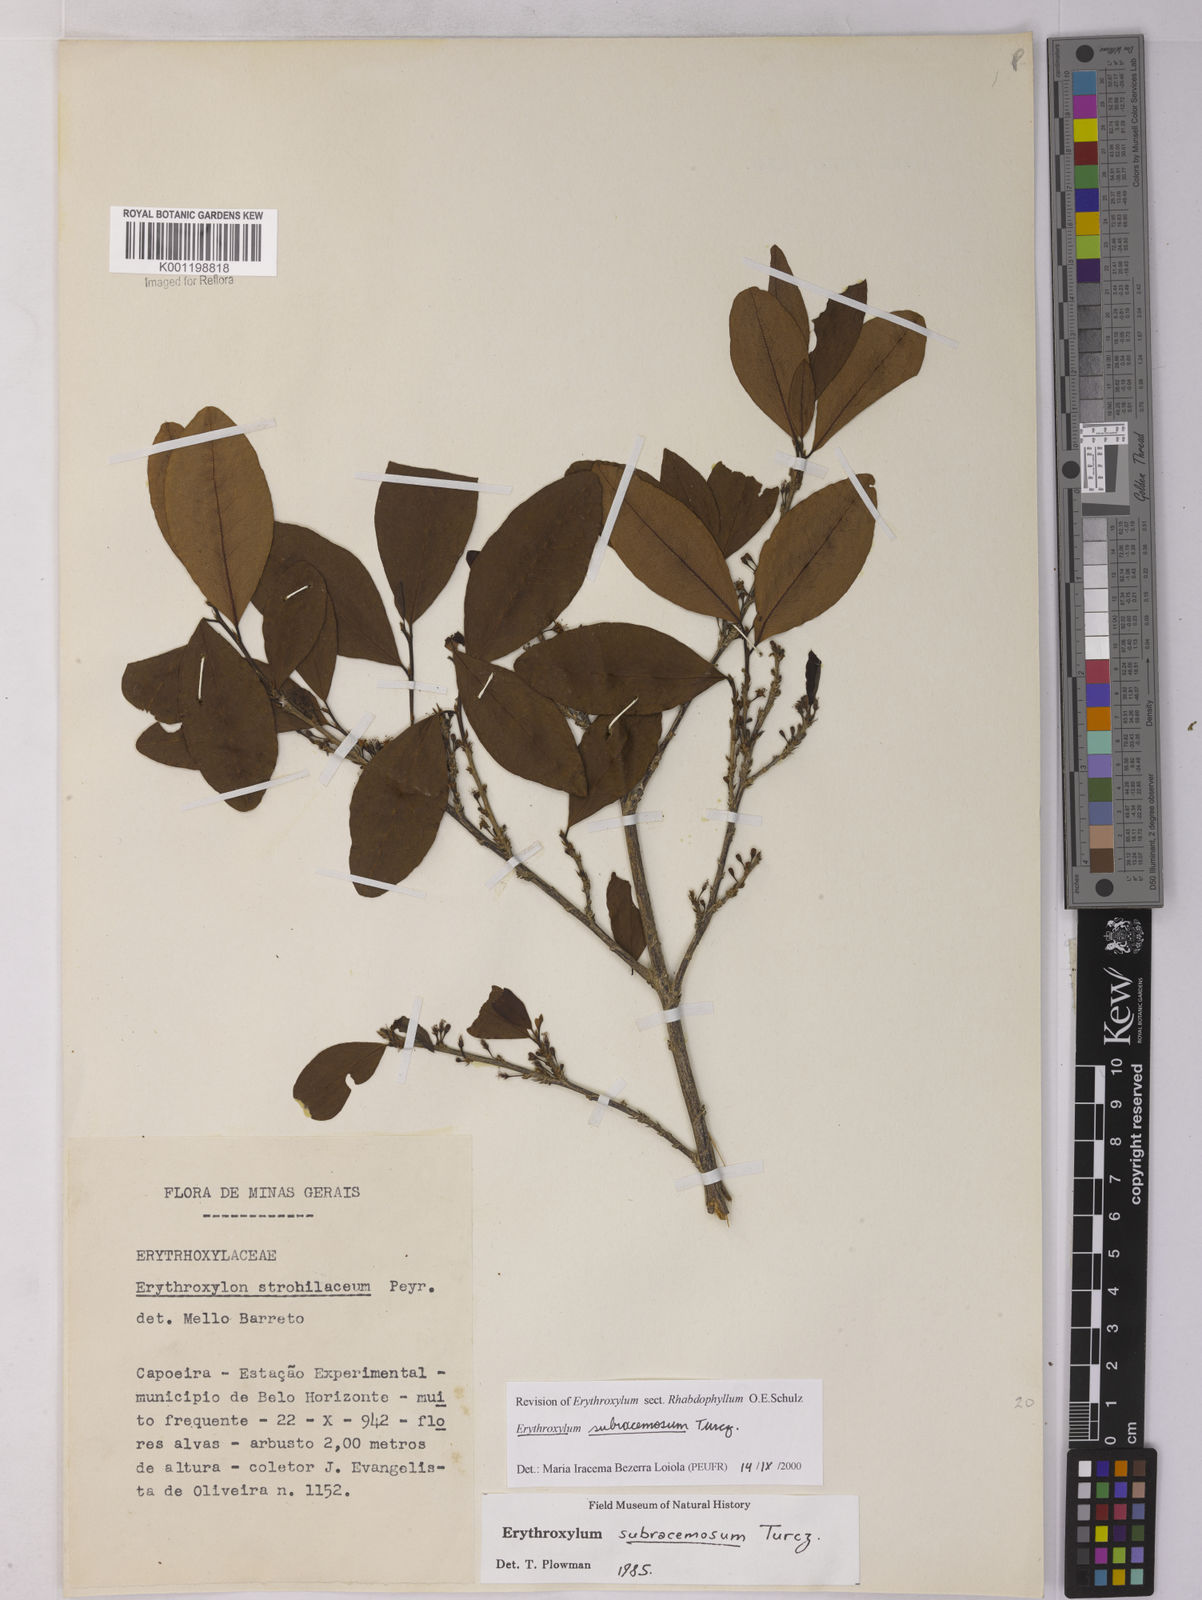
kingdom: Plantae
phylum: Tracheophyta
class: Magnoliopsida
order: Malpighiales
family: Erythroxylaceae
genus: Erythroxylum
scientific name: Erythroxylum subracemosum
